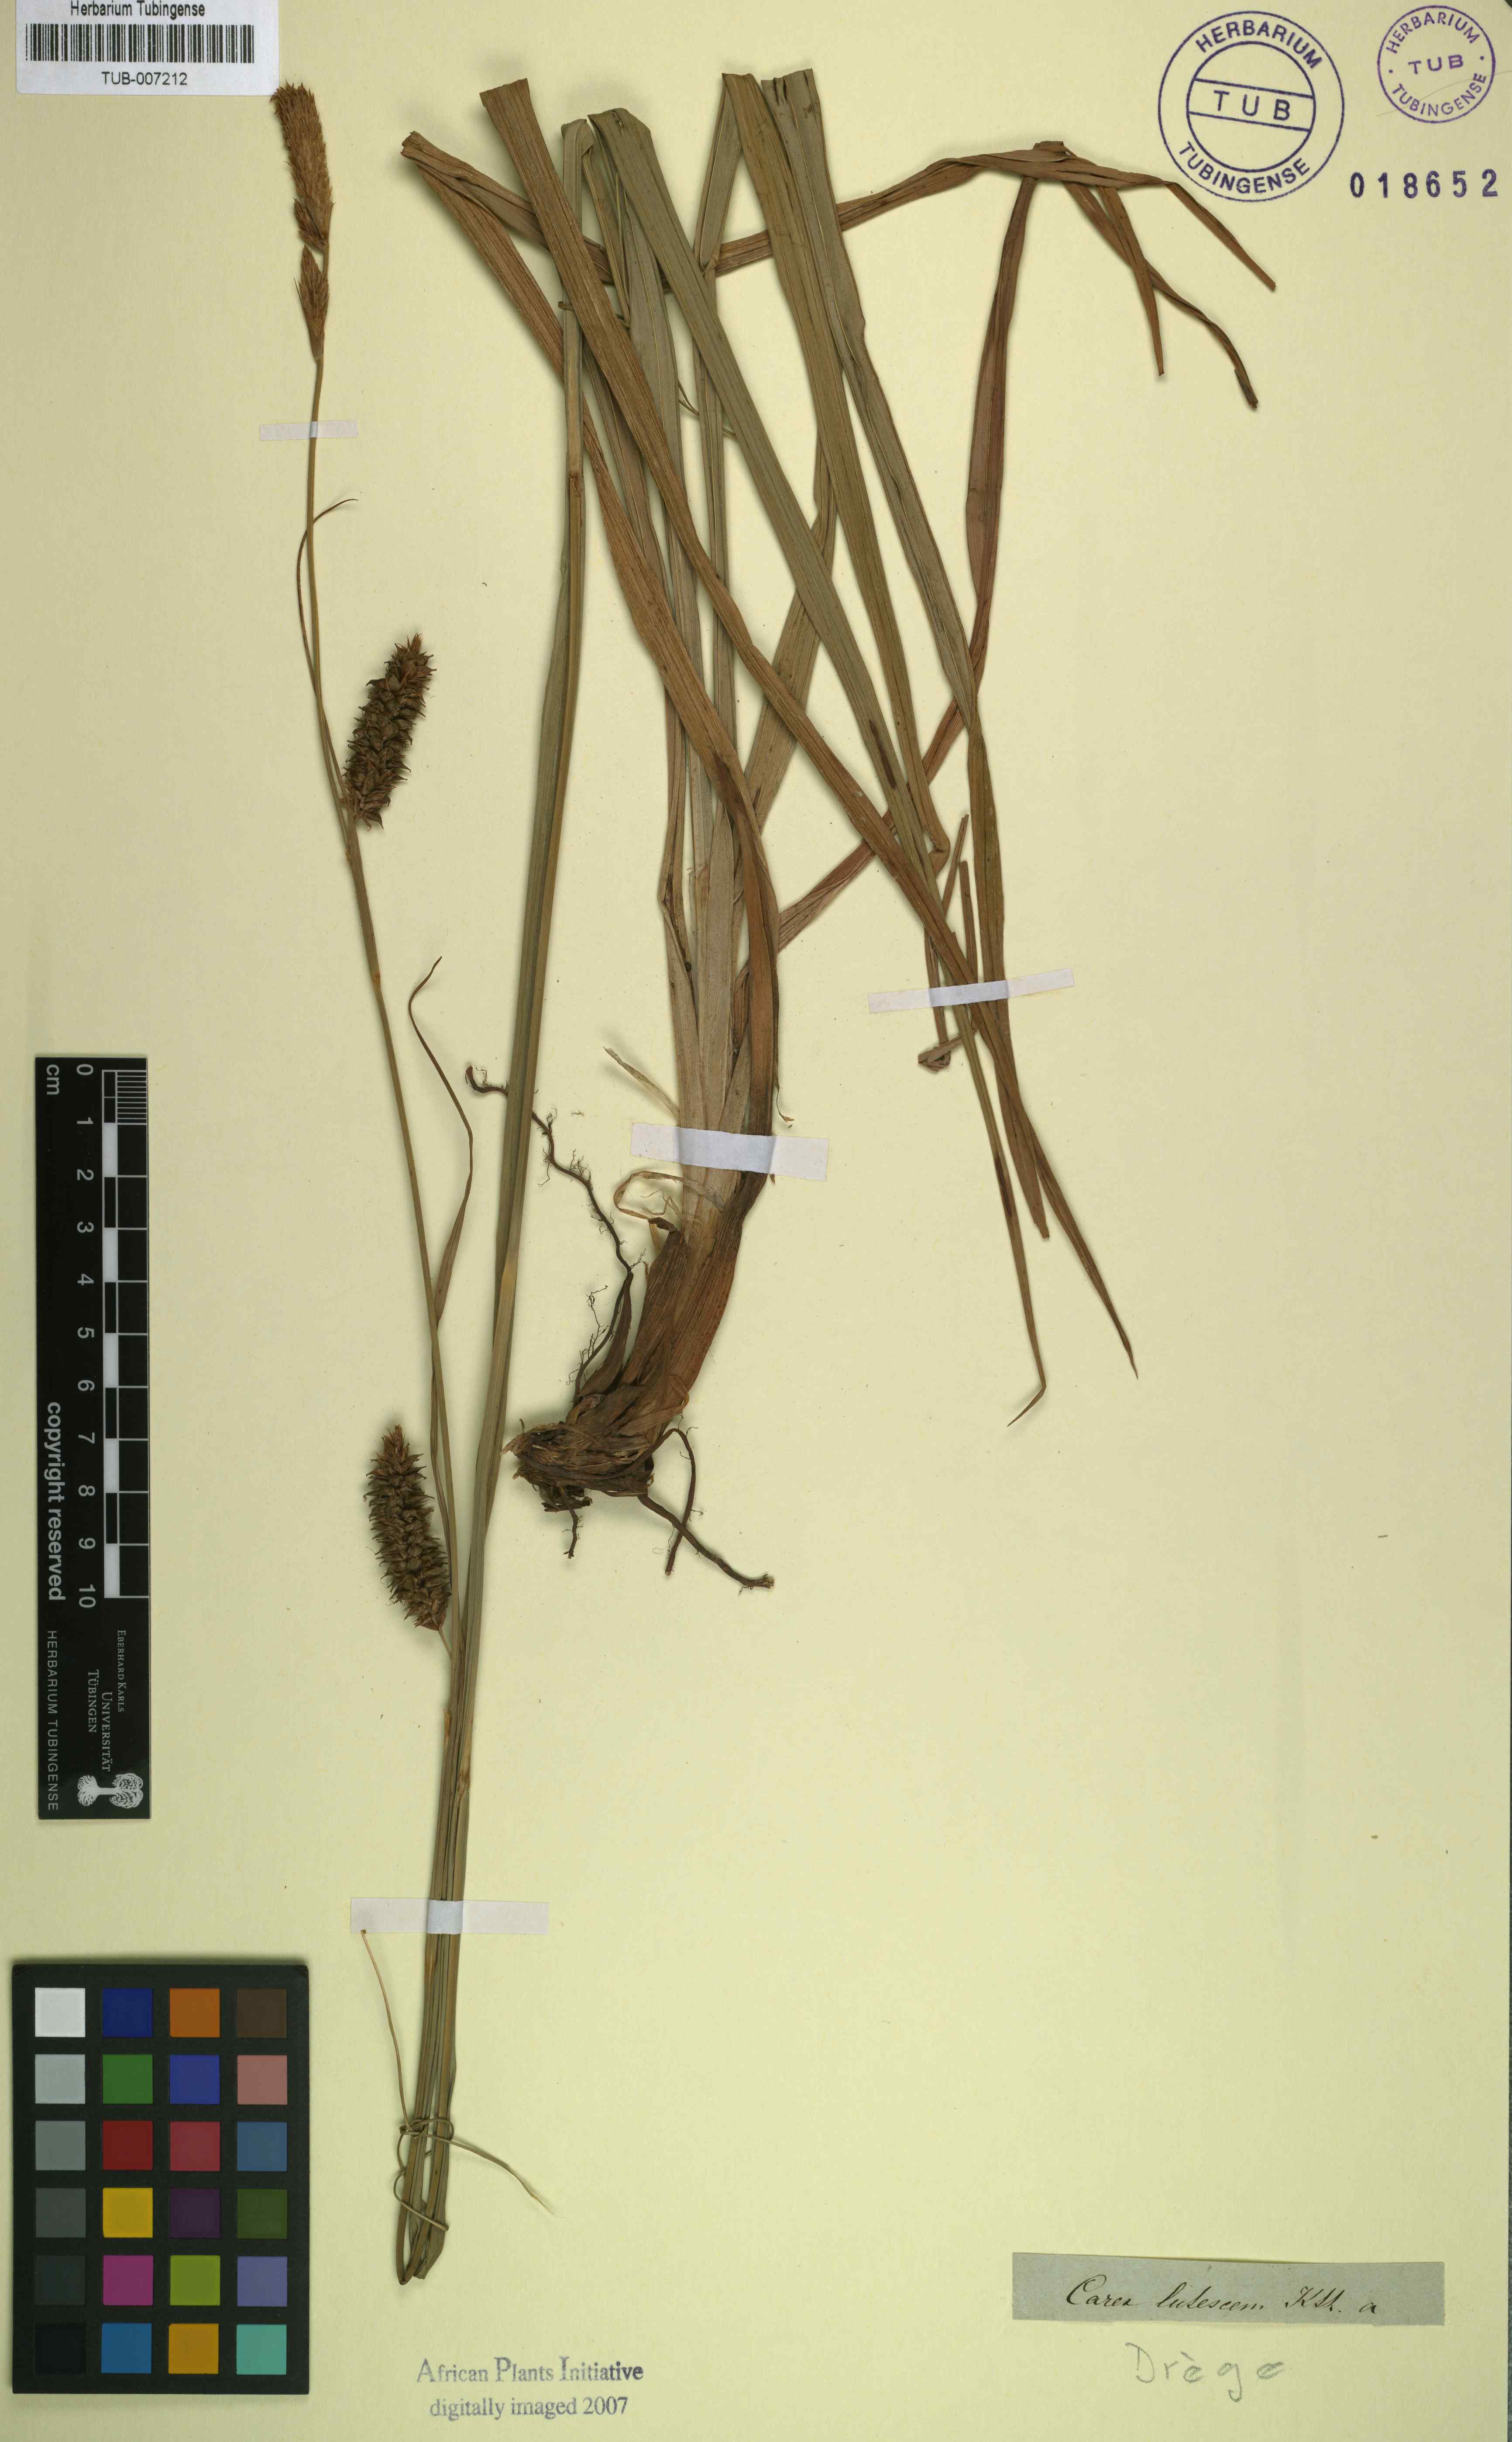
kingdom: Plantae
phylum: Tracheophyta
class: Liliopsida
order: Poales
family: Cyperaceae
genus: Carex
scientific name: Carex clavata
